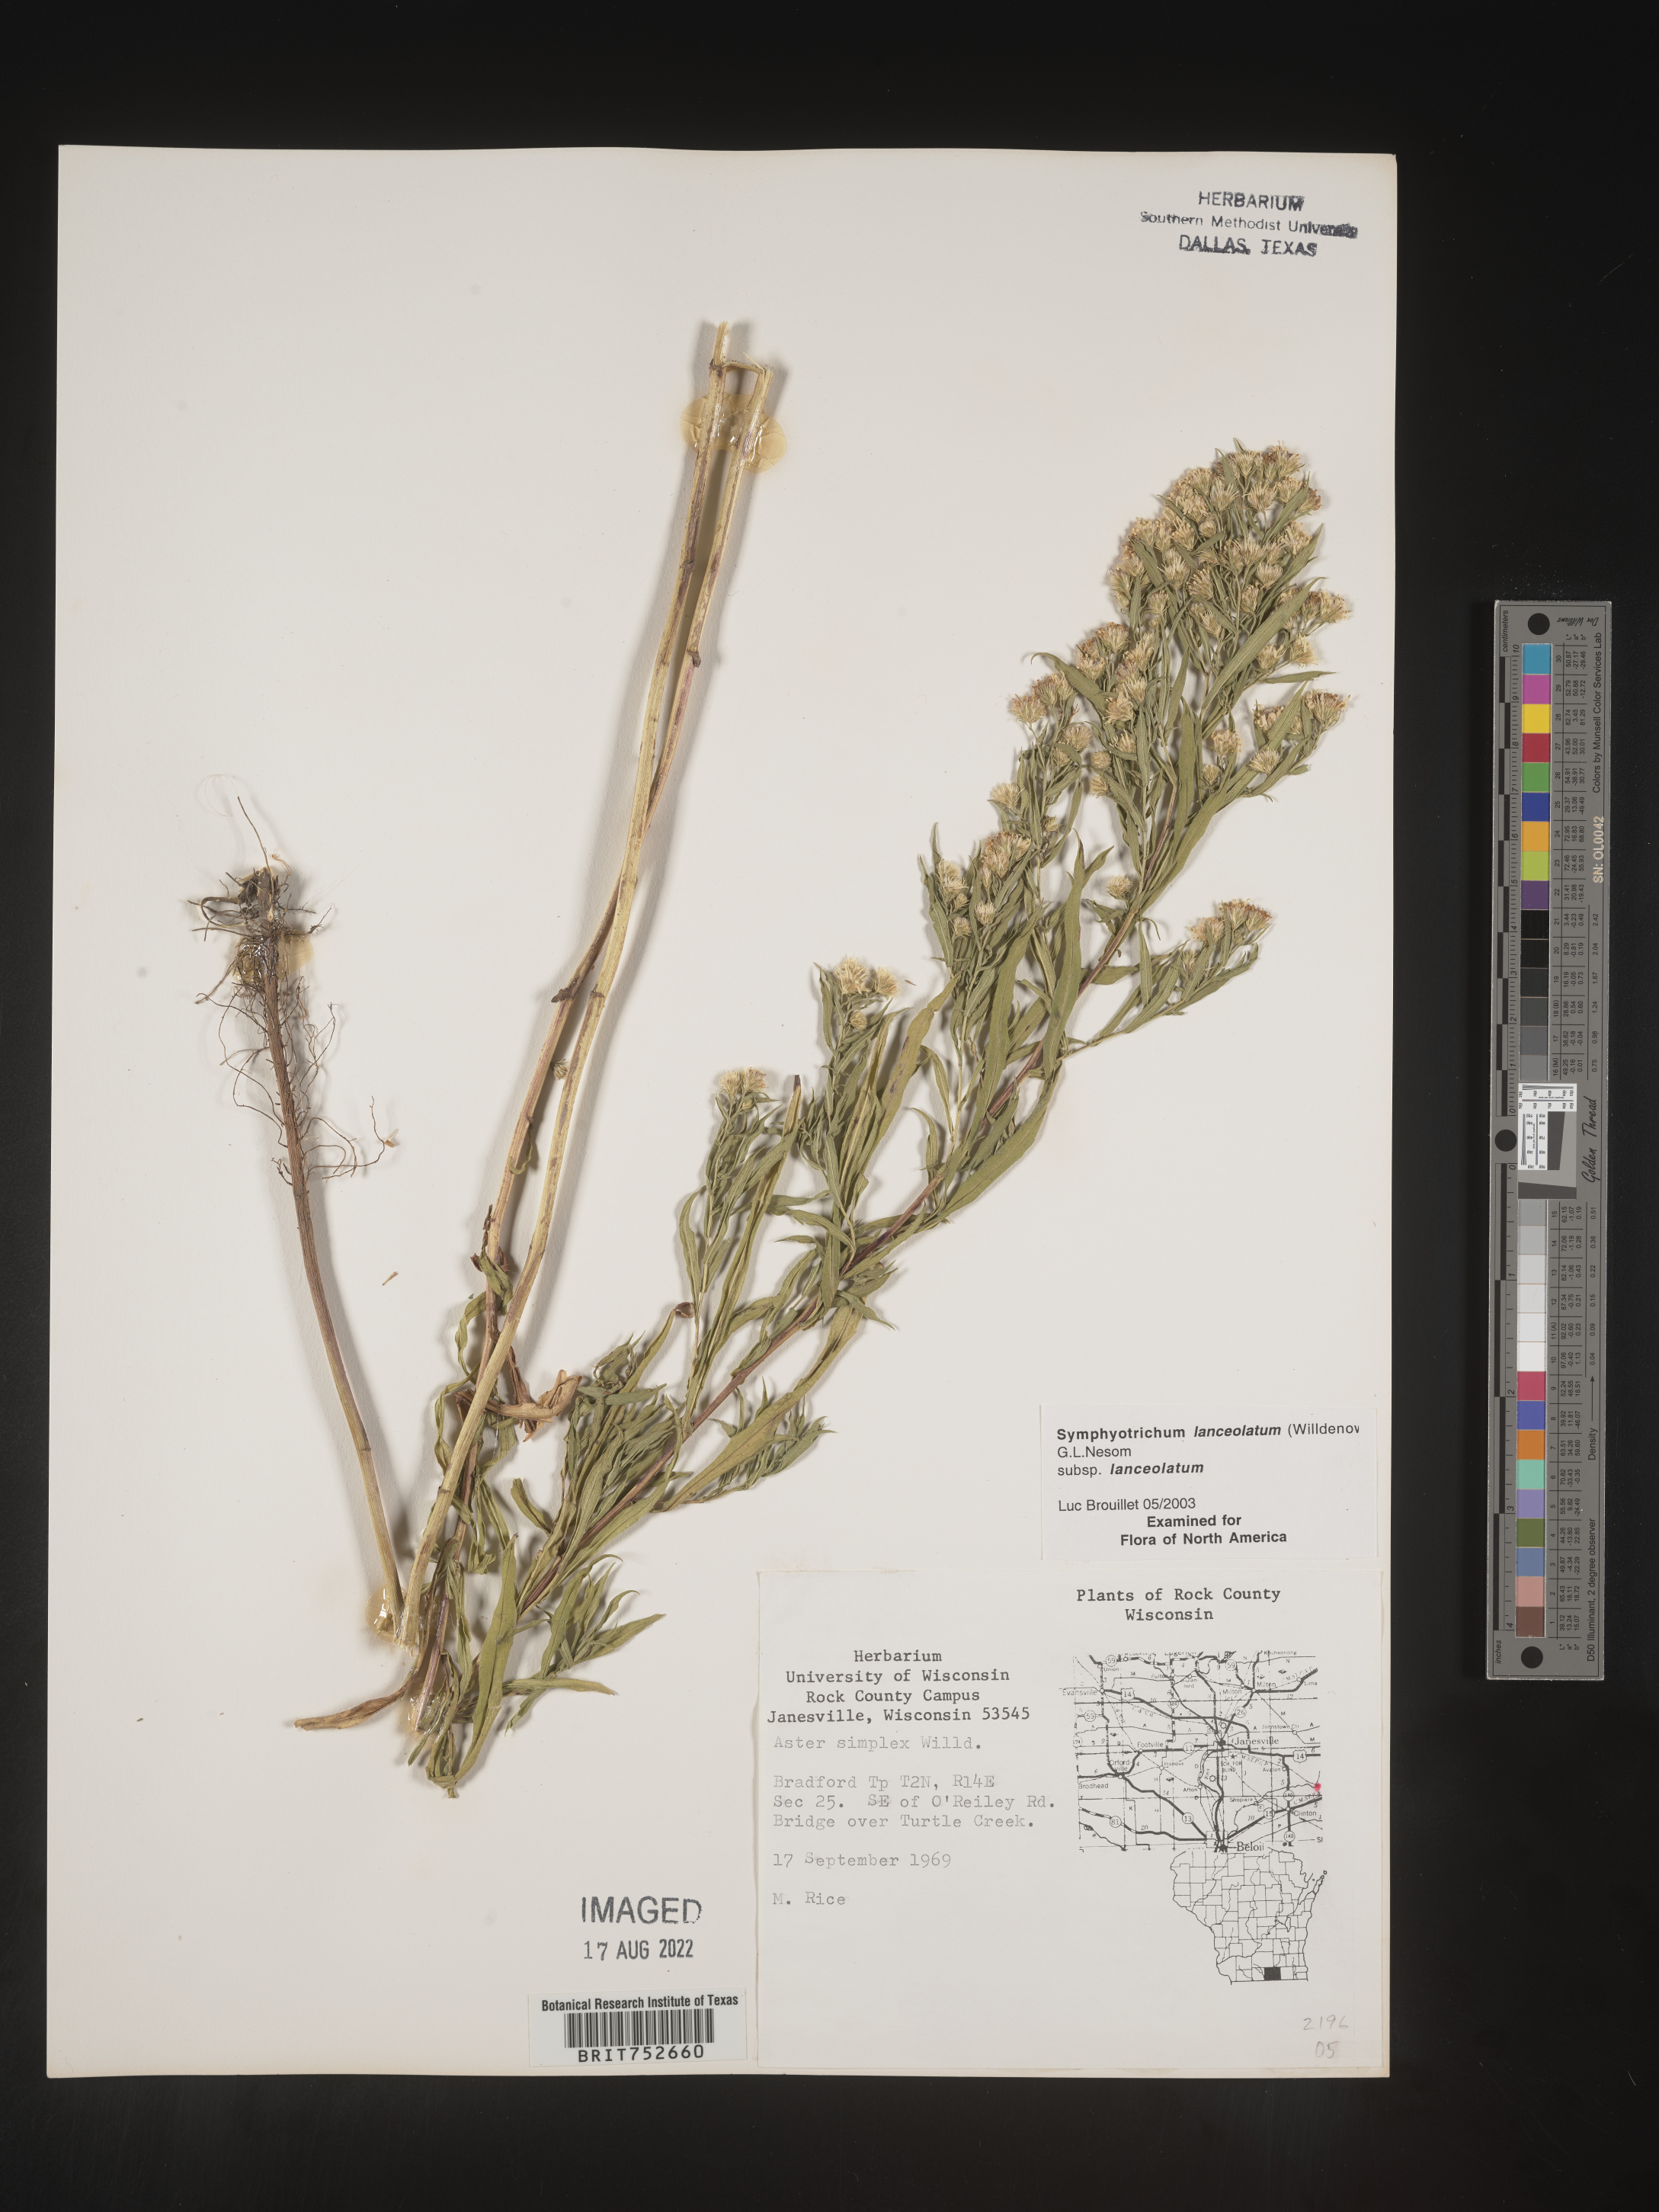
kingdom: Plantae
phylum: Tracheophyta
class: Magnoliopsida
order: Asterales
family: Asteraceae
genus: Symphyotrichum
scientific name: Symphyotrichum lanceolatum
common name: Panicled aster
